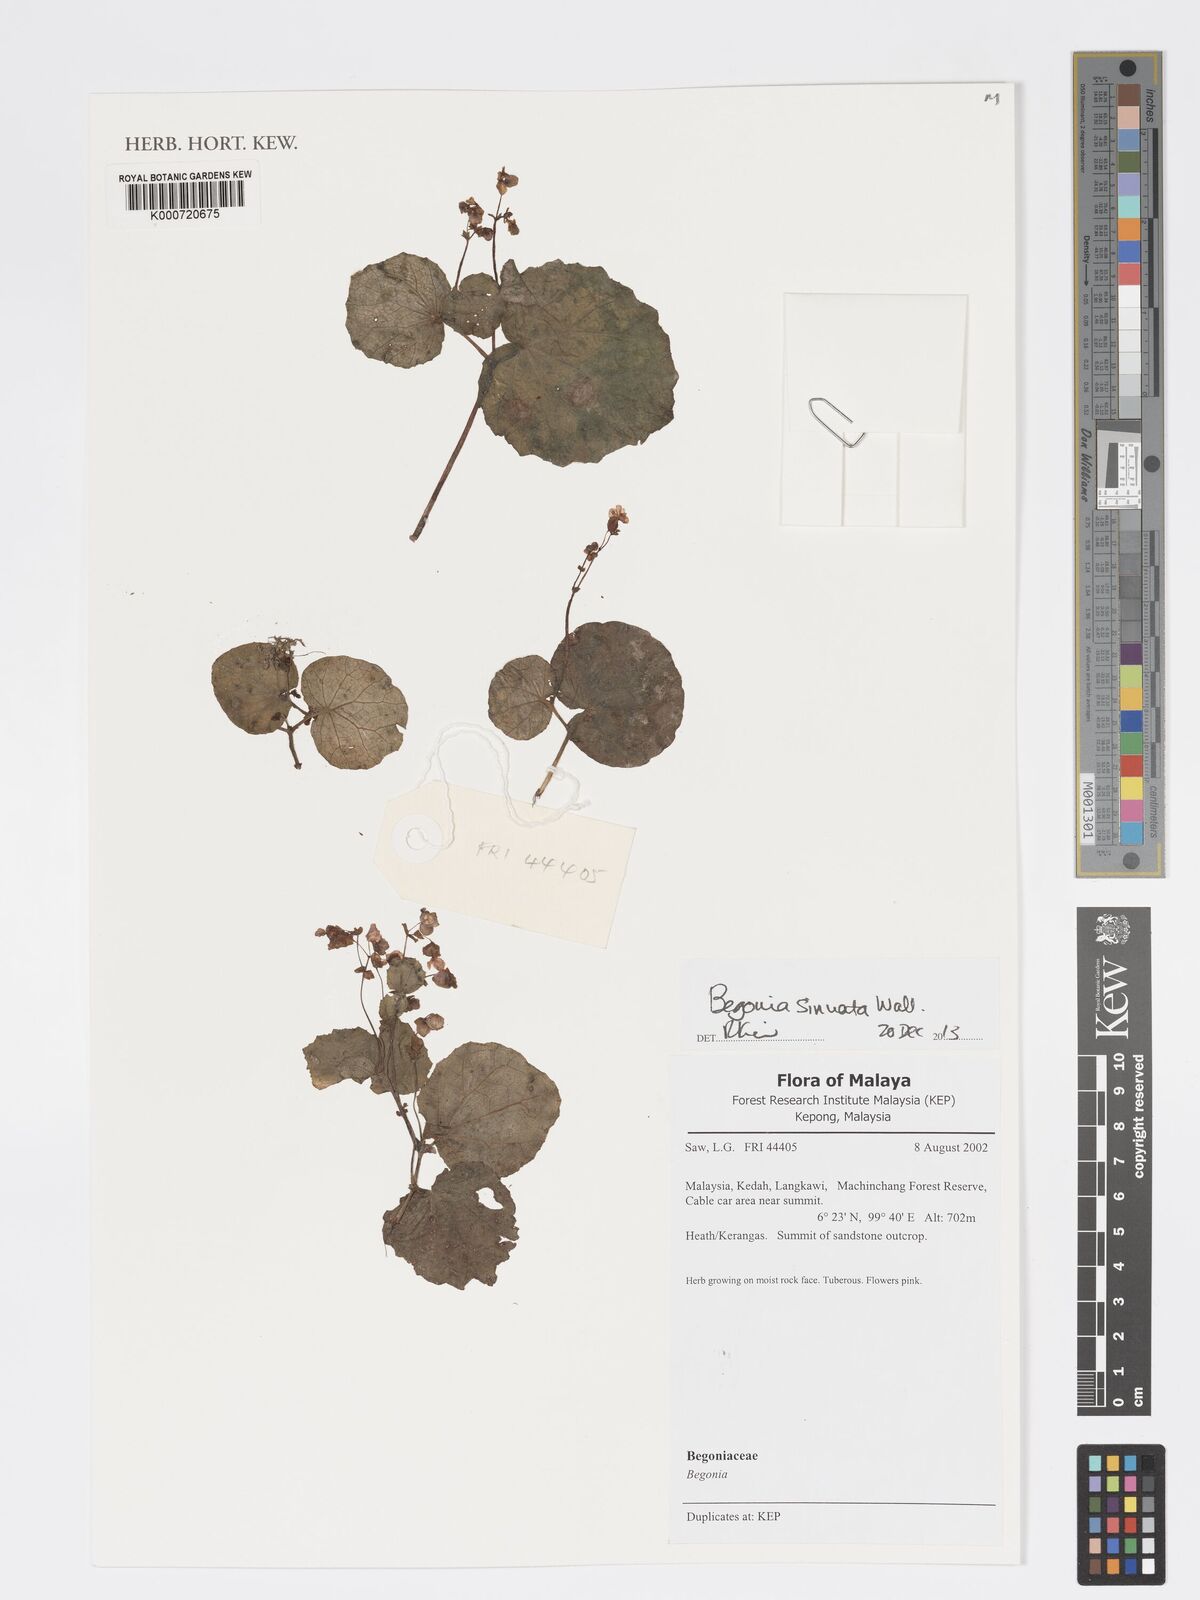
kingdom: Plantae
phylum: Tracheophyta
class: Magnoliopsida
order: Cucurbitales
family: Begoniaceae
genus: Begonia
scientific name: Begonia
